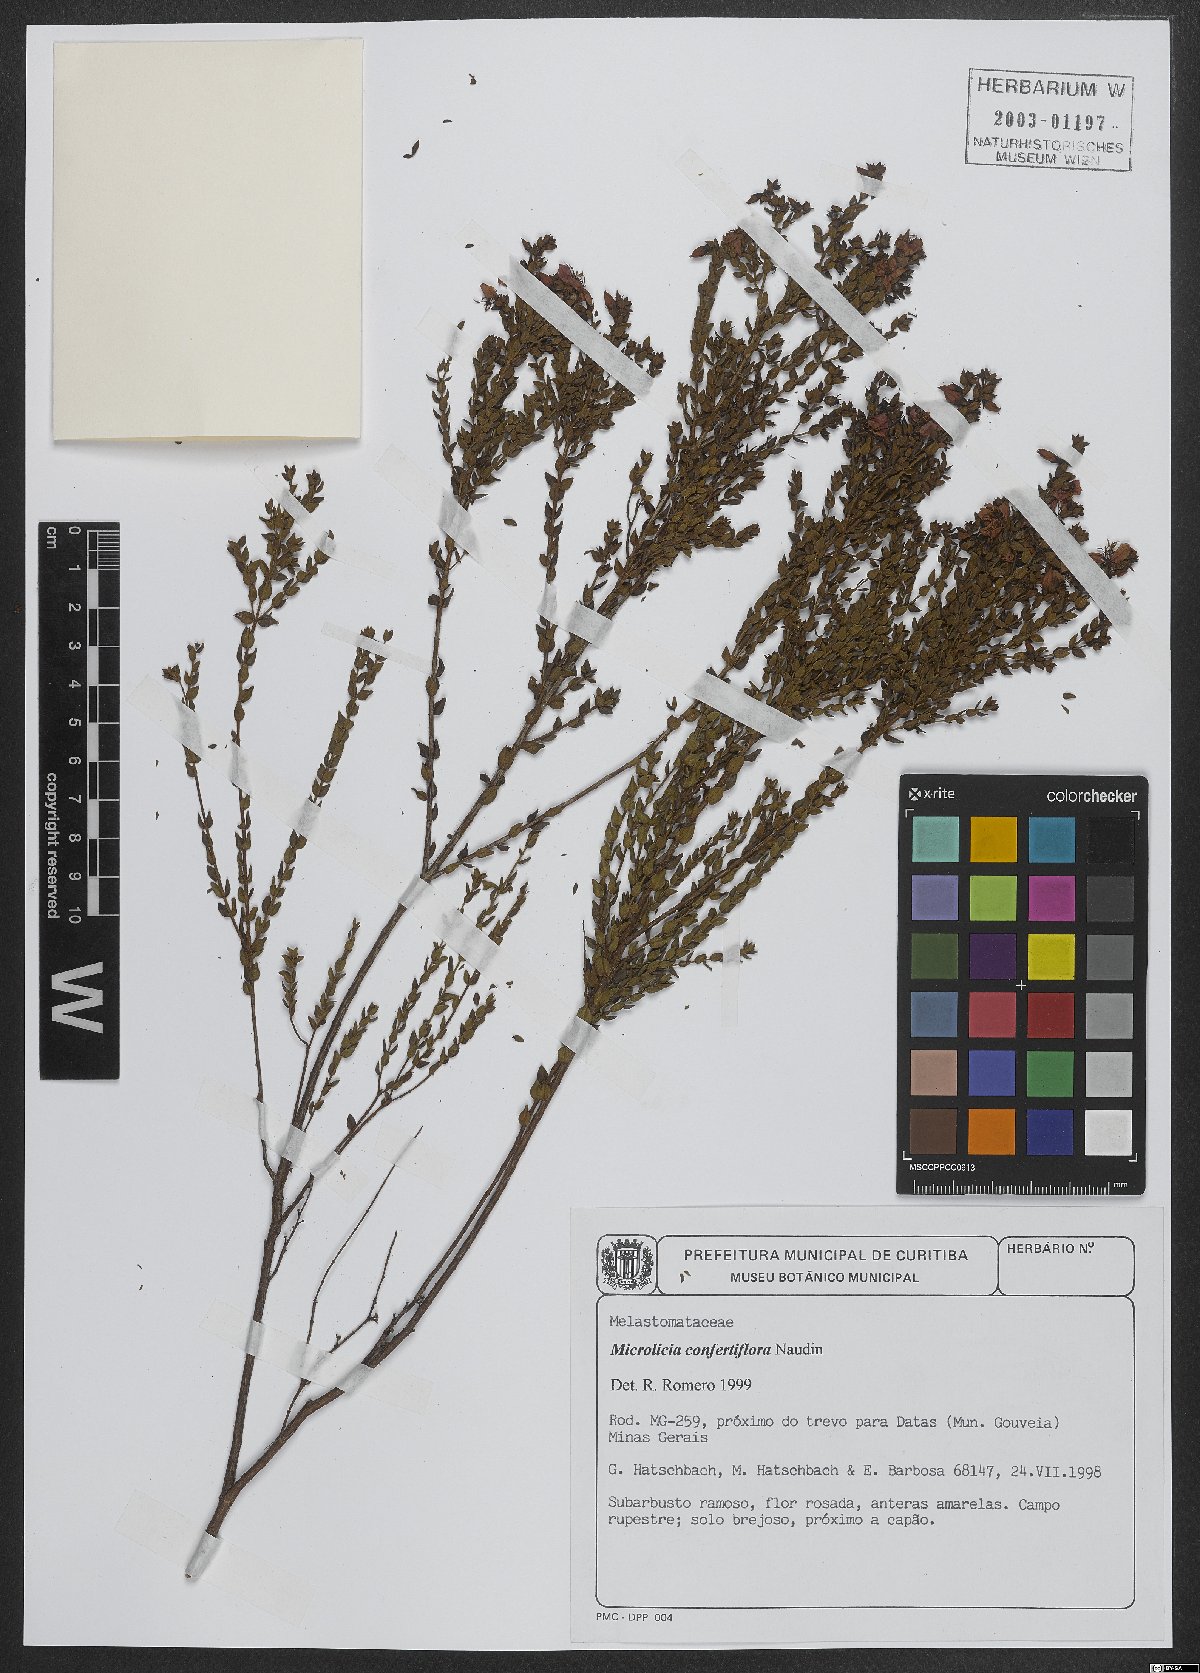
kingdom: Plantae
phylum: Tracheophyta
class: Magnoliopsida
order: Myrtales
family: Melastomataceae
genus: Microlicia
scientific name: Microlicia confertiflora
